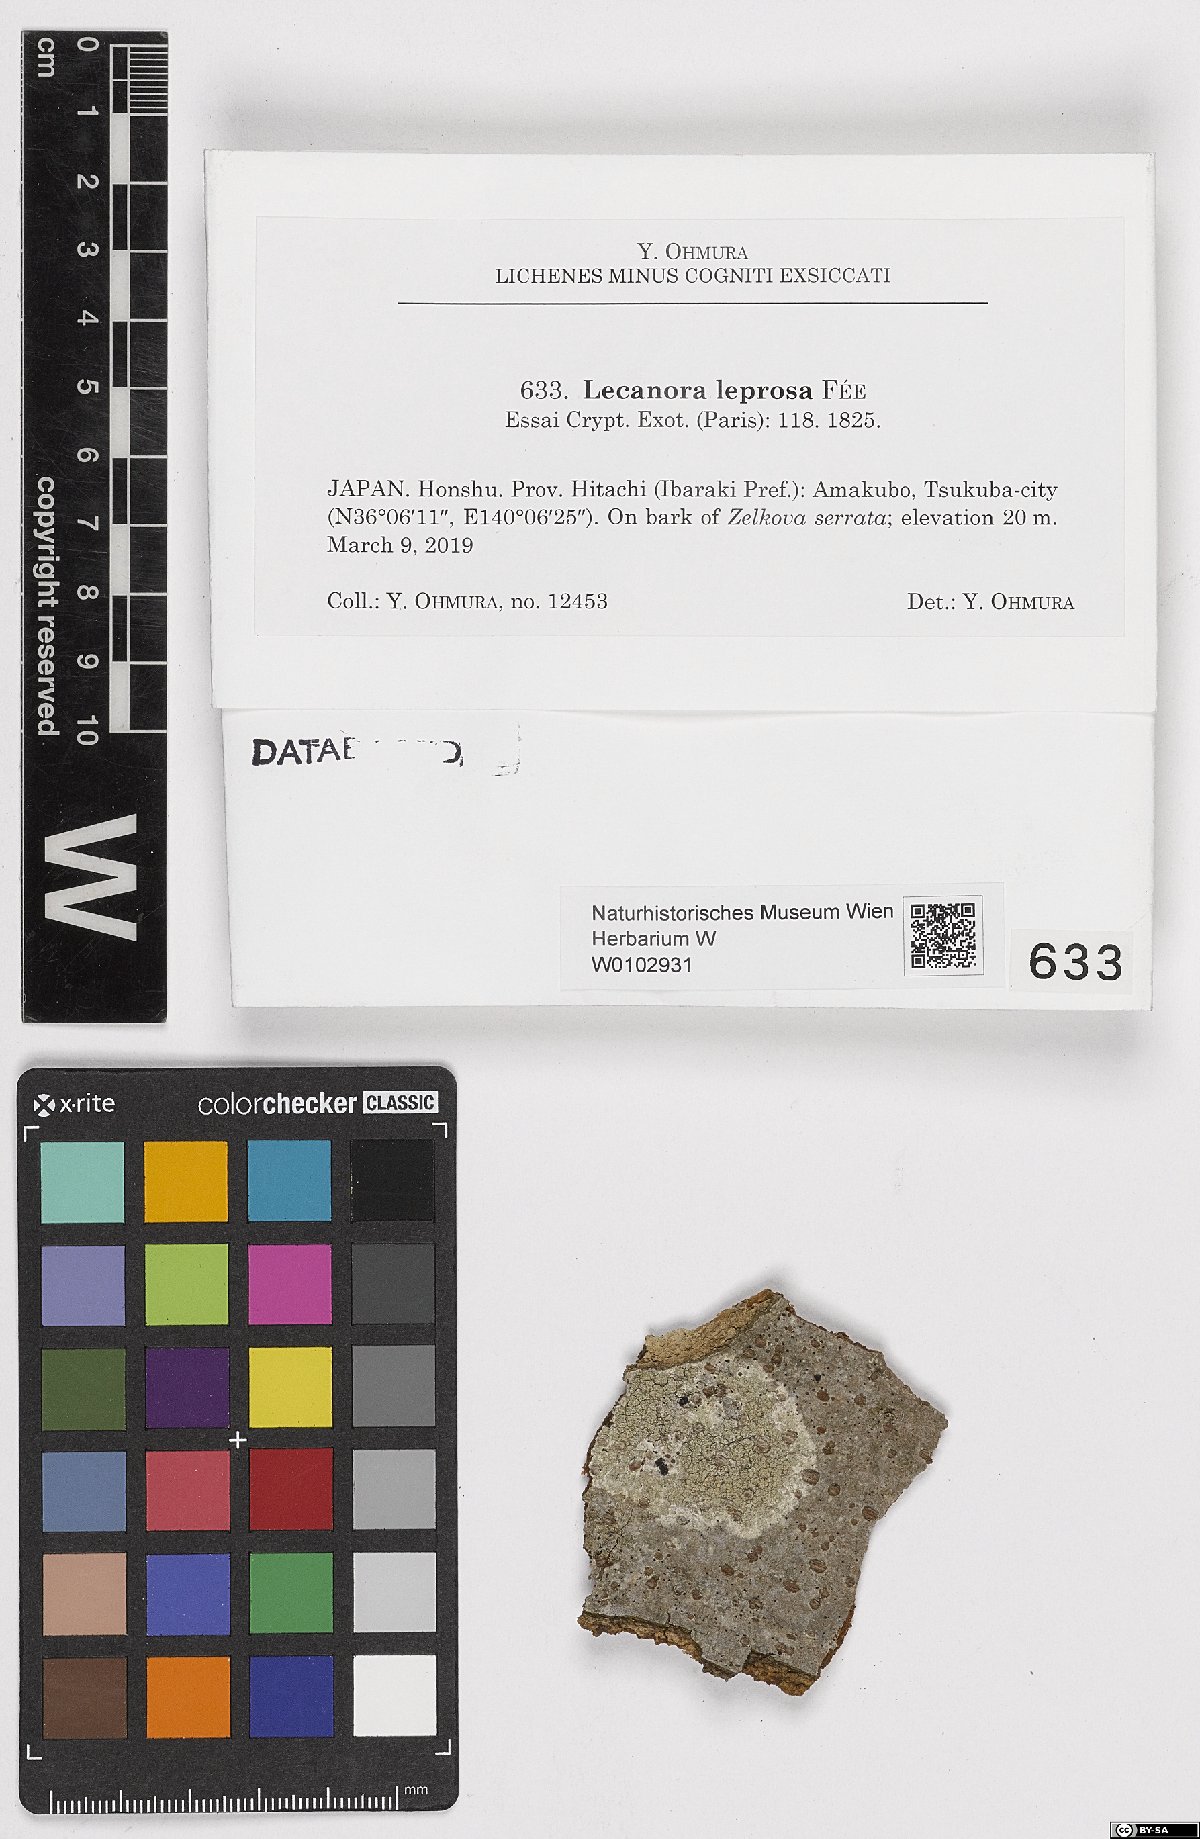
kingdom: Fungi
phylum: Ascomycota
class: Lecanoromycetes
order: Lecanorales
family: Lecanoraceae
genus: Lecanora
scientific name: Lecanora leprosa
